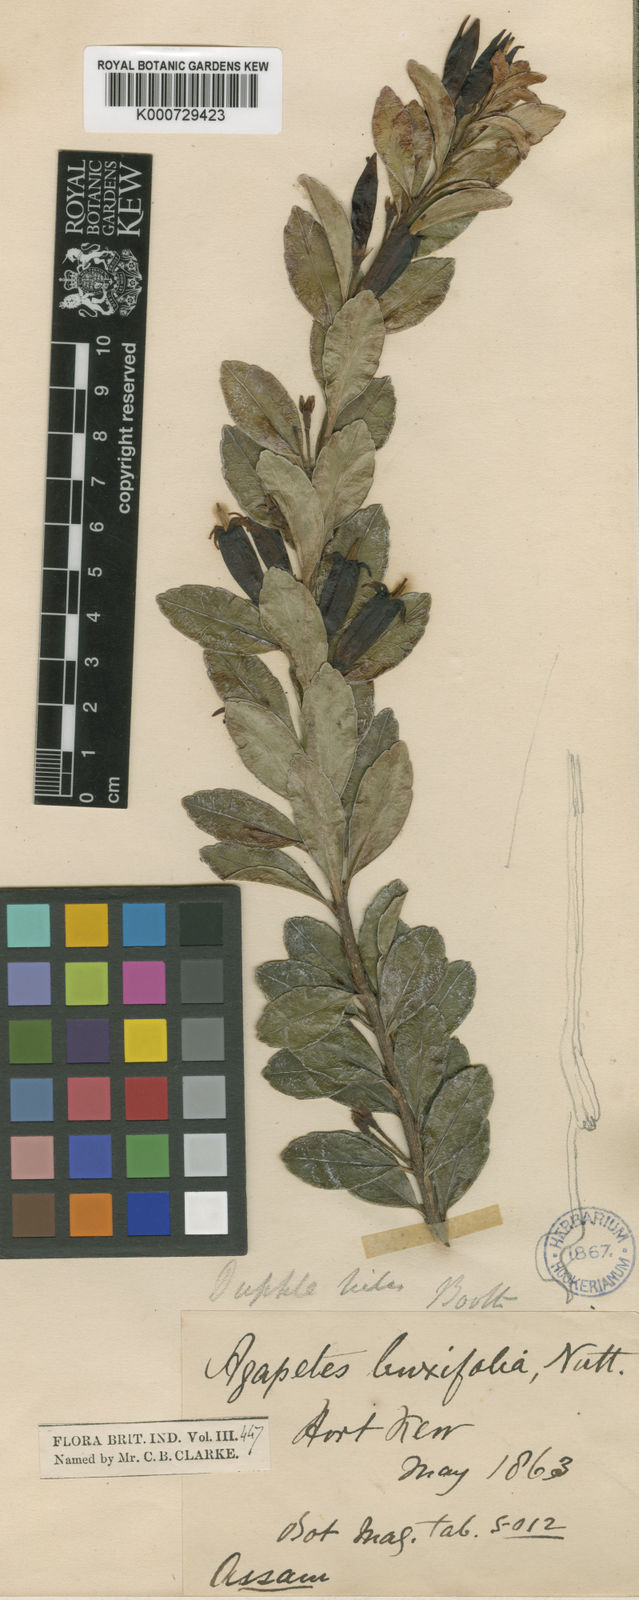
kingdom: Plantae
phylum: Tracheophyta
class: Magnoliopsida
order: Ericales
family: Ericaceae
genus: Agapetes
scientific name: Agapetes buxifolia
